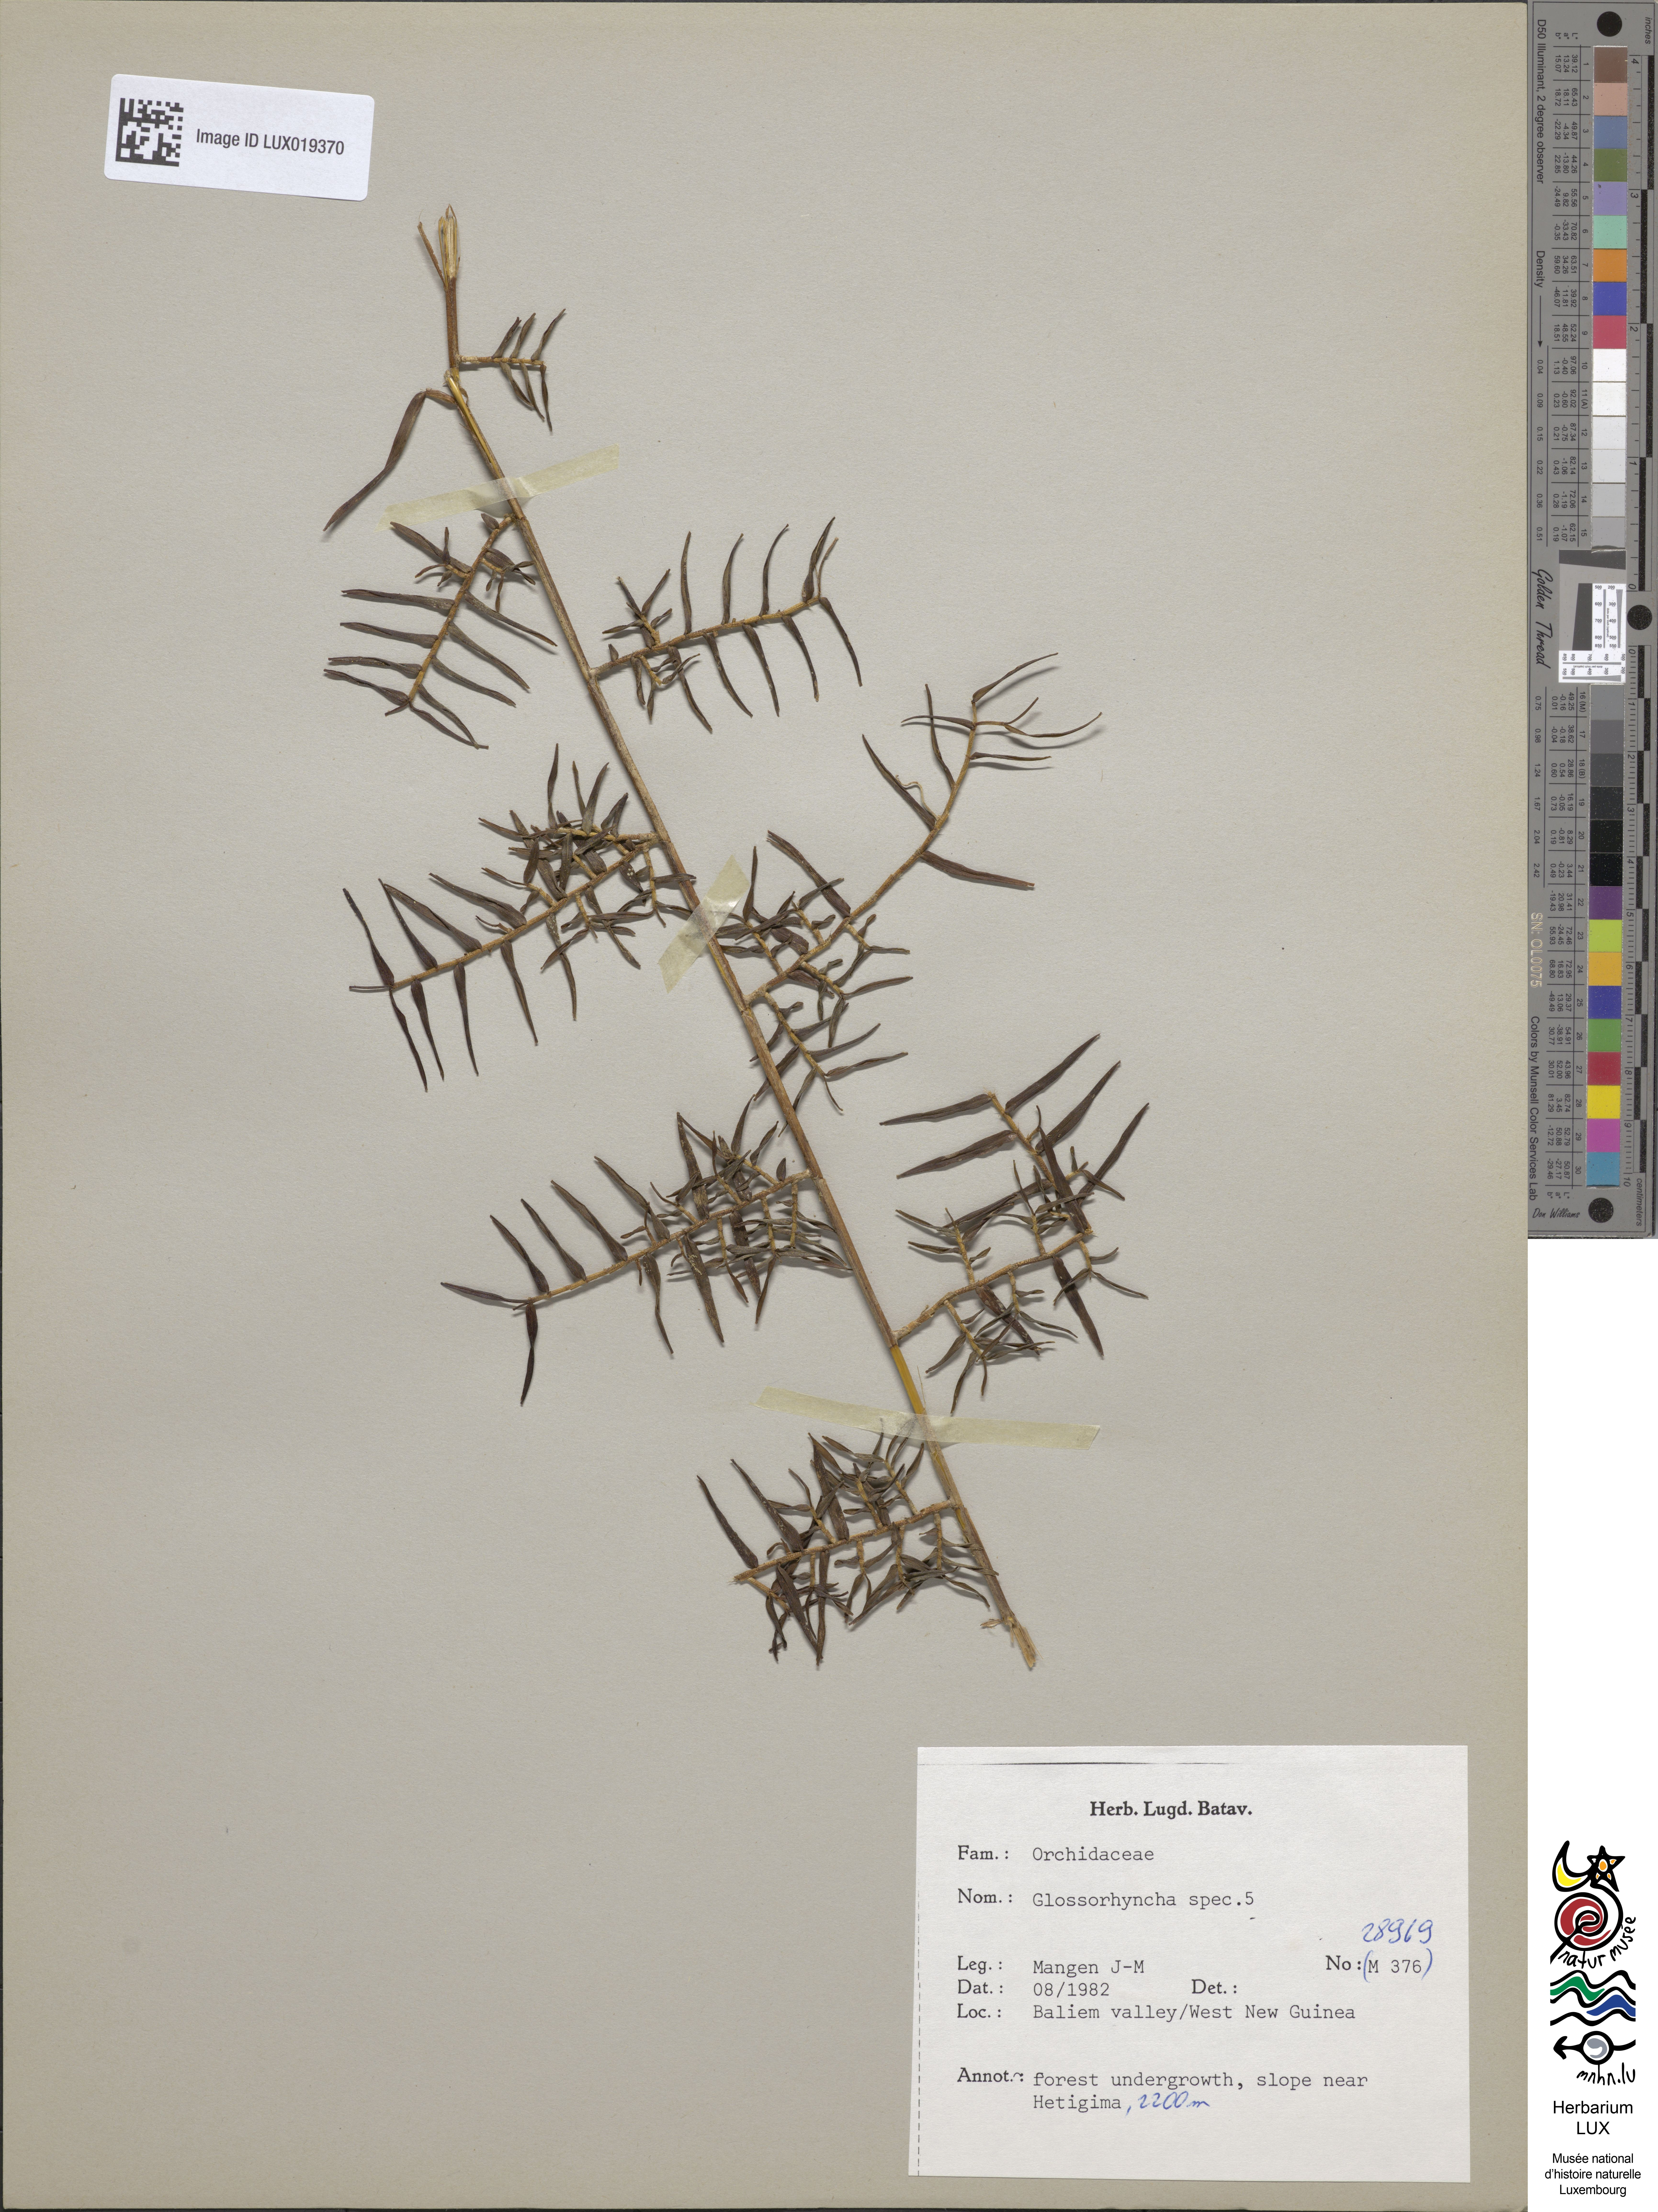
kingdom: Plantae
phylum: Tracheophyta
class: Liliopsida
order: Asparagales
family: Orchidaceae
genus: Glomera
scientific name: Glomera
